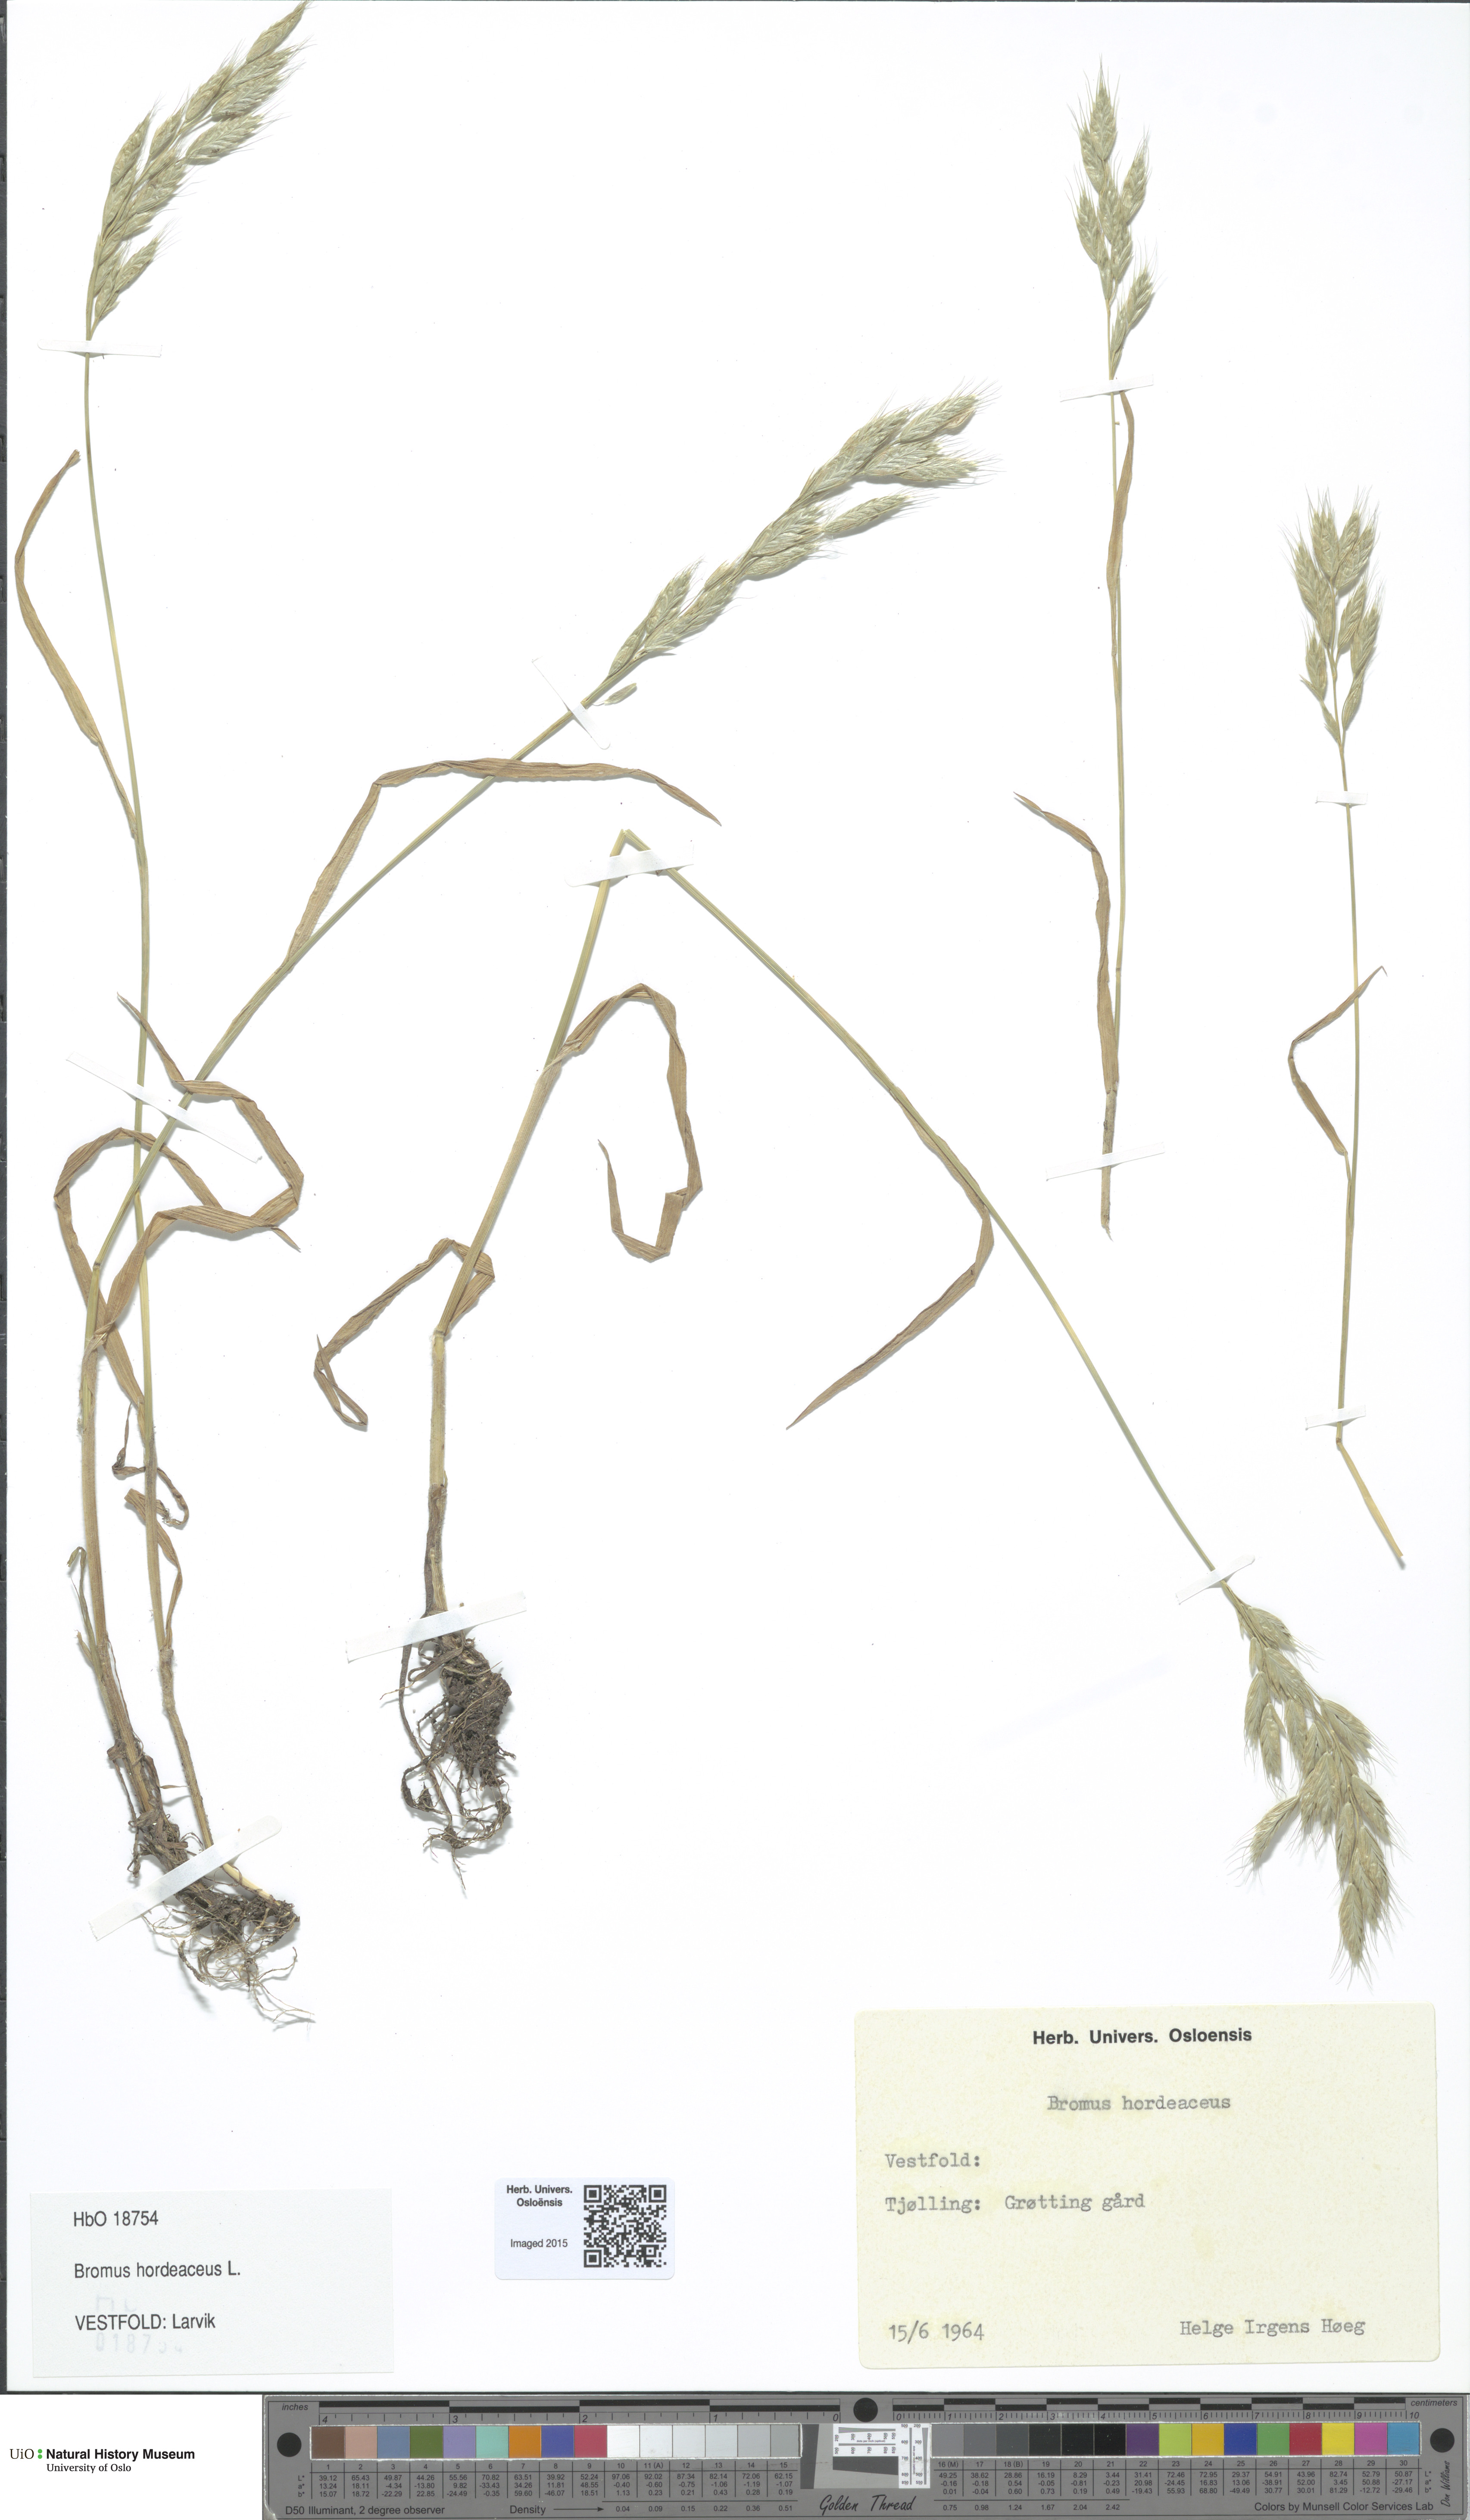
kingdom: Plantae
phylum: Tracheophyta
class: Liliopsida
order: Poales
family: Poaceae
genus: Bromus
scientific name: Bromus hordeaceus
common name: Soft brome
